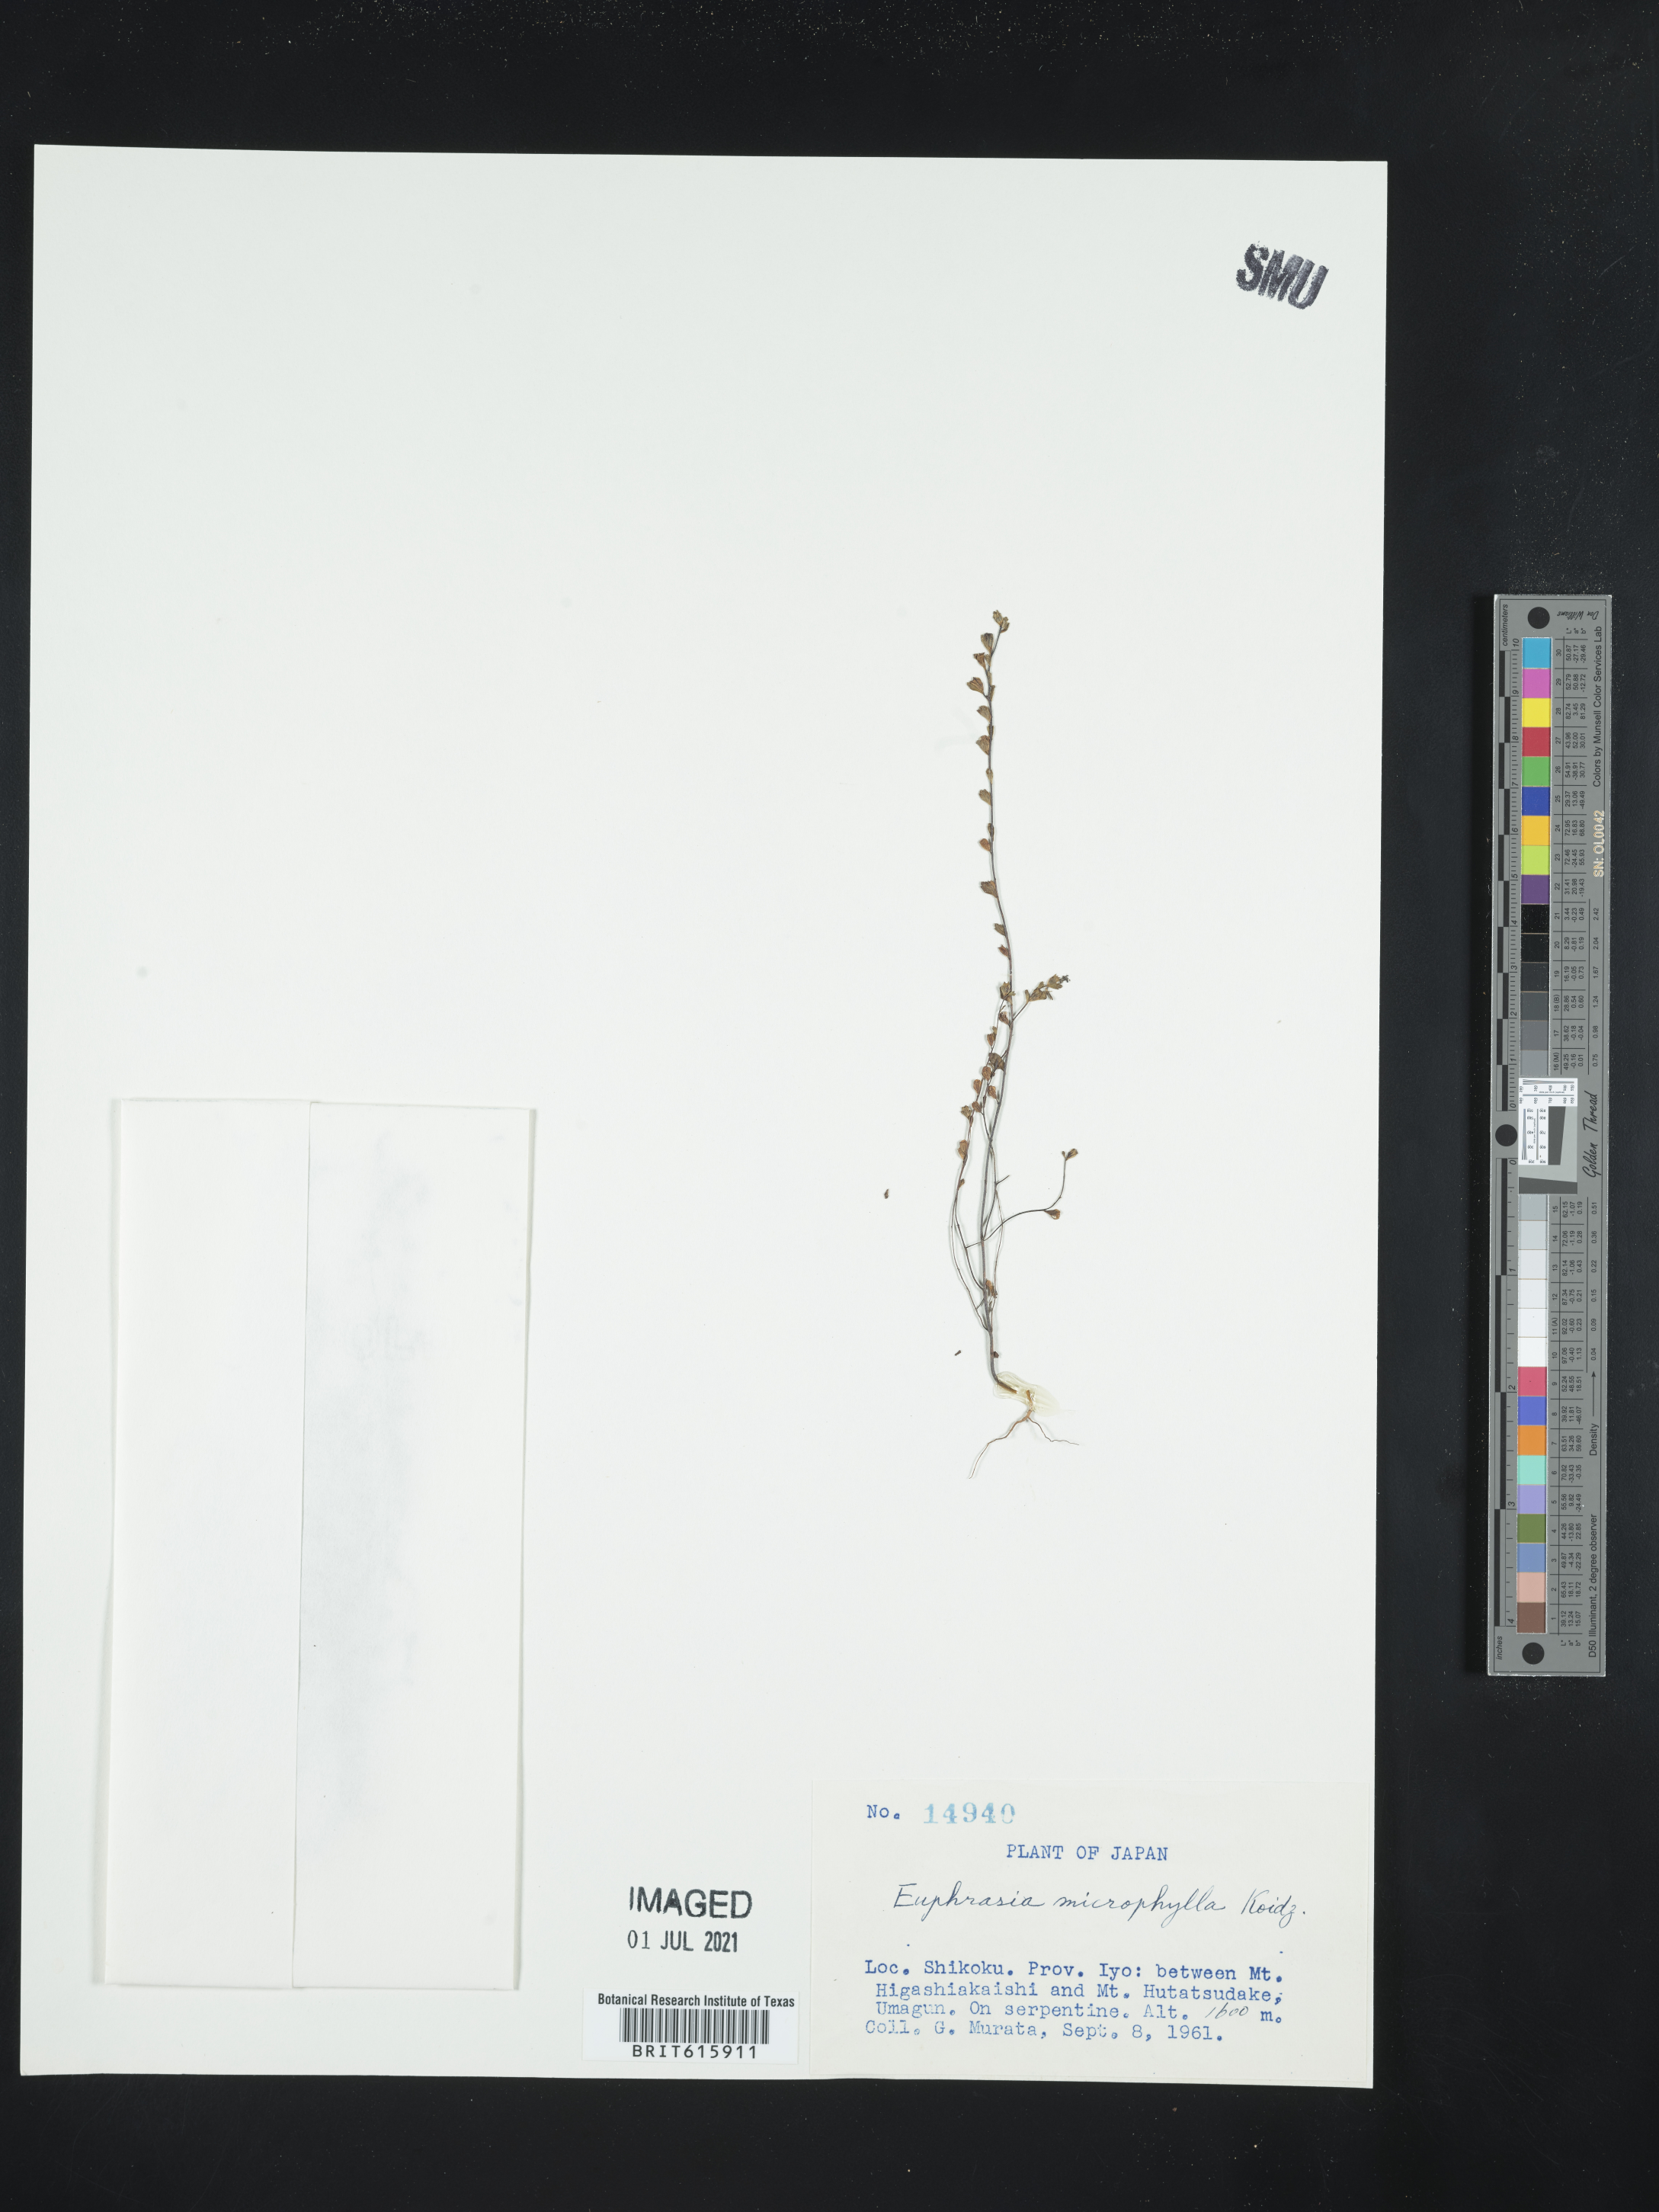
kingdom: Plantae
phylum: Tracheophyta
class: Magnoliopsida
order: Lamiales
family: Orobanchaceae
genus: Euphrasia
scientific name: Euphrasia microphylla
